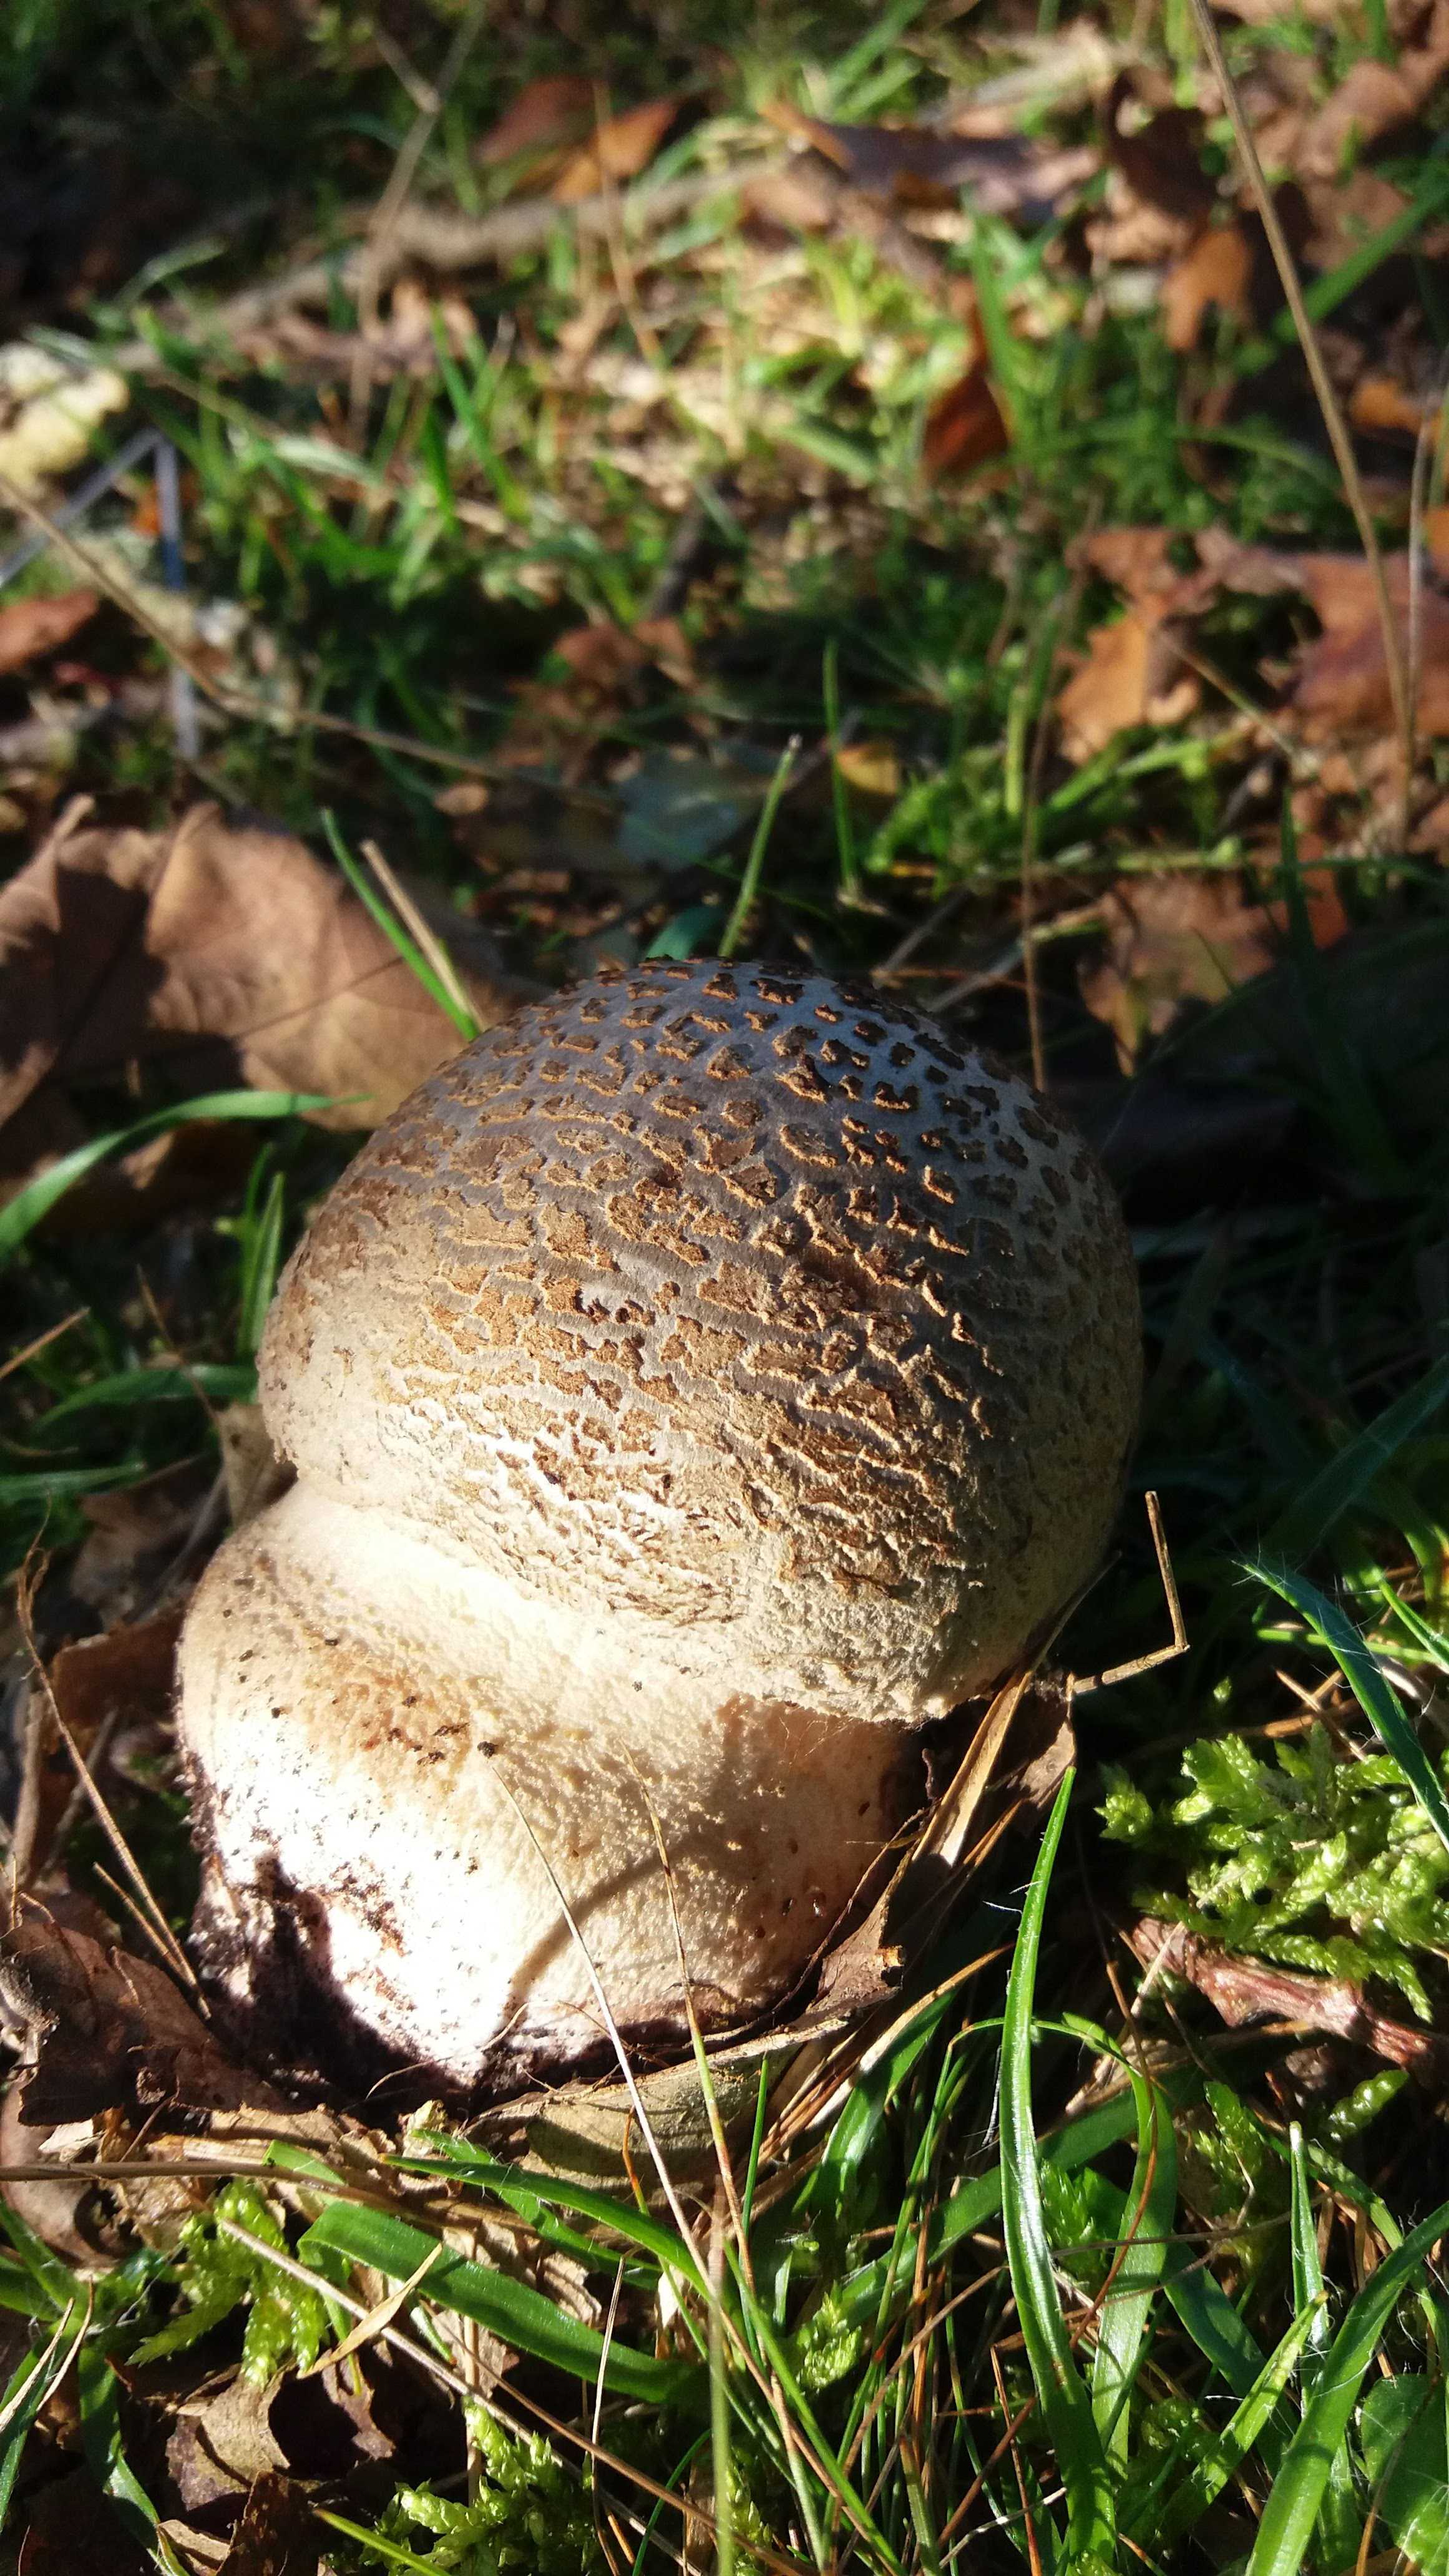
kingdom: Fungi
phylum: Basidiomycota
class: Agaricomycetes
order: Agaricales
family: Amanitaceae
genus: Amanita
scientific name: Amanita
